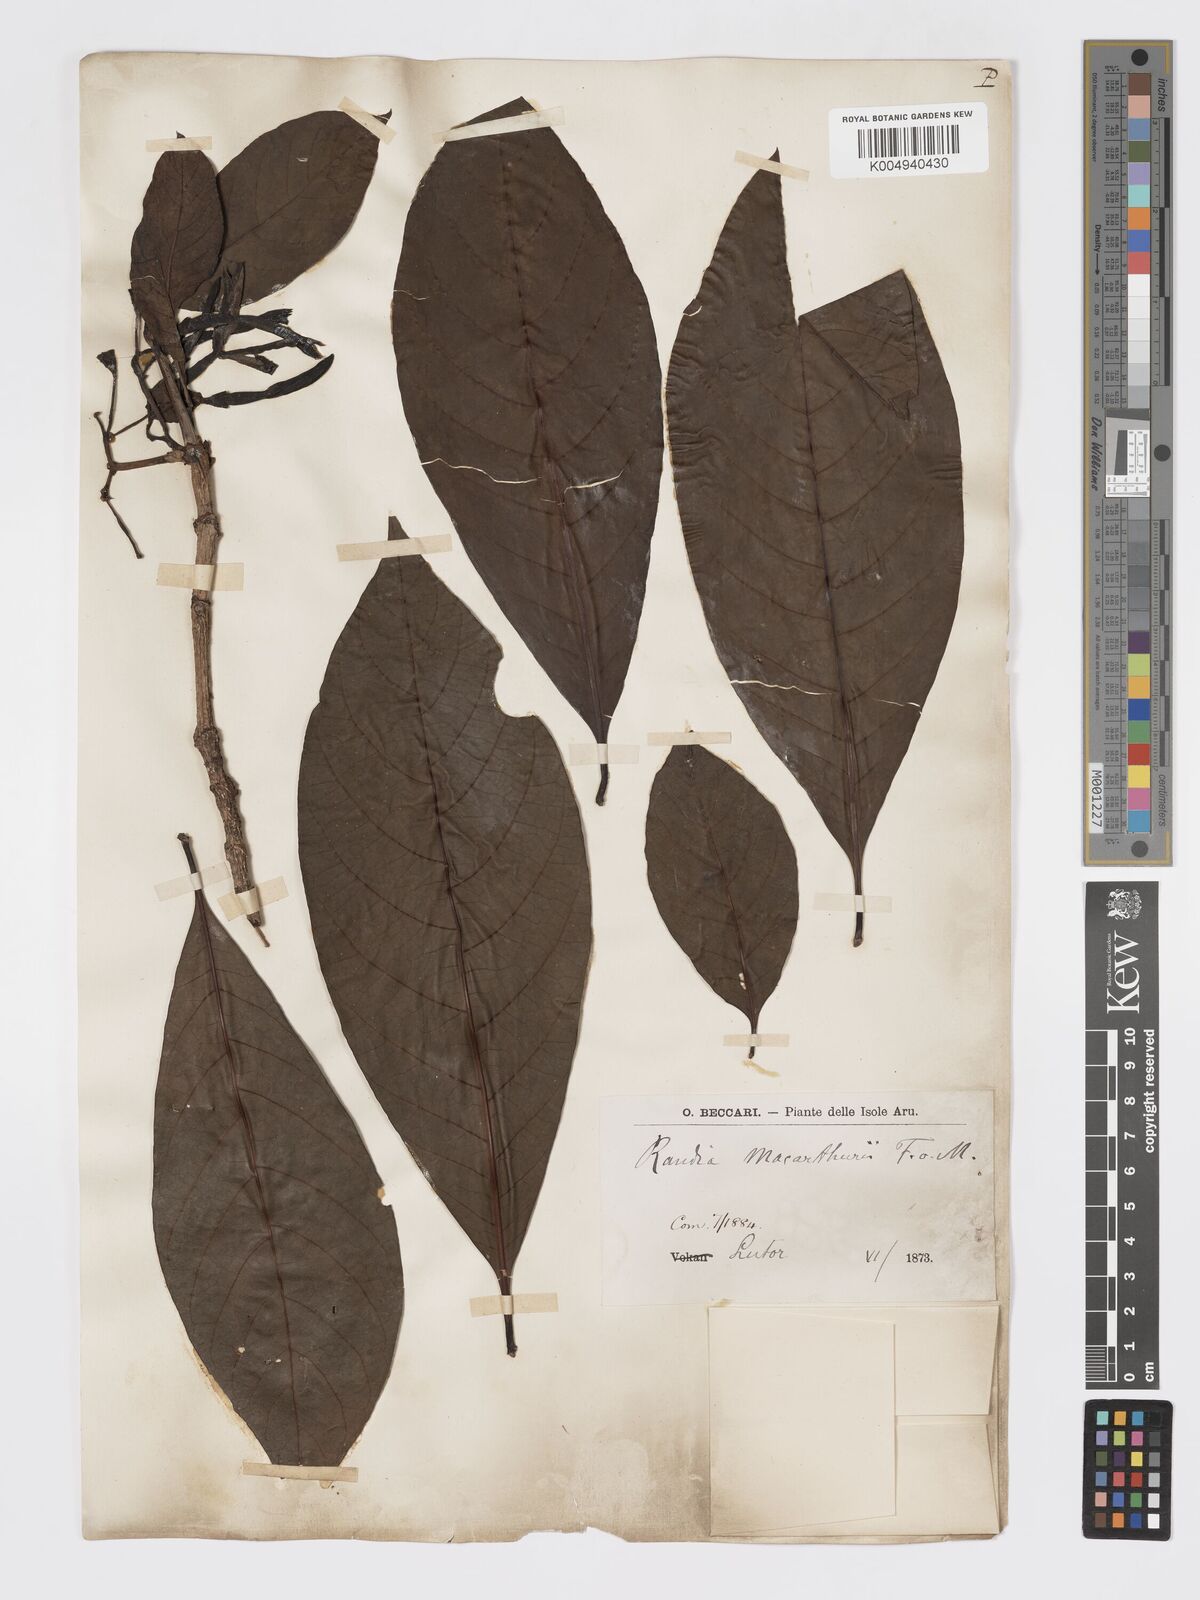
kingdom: Plantae
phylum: Tracheophyta
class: Magnoliopsida
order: Gentianales
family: Rubiaceae
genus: Atractocarpus
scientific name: Atractocarpus macarthurii
